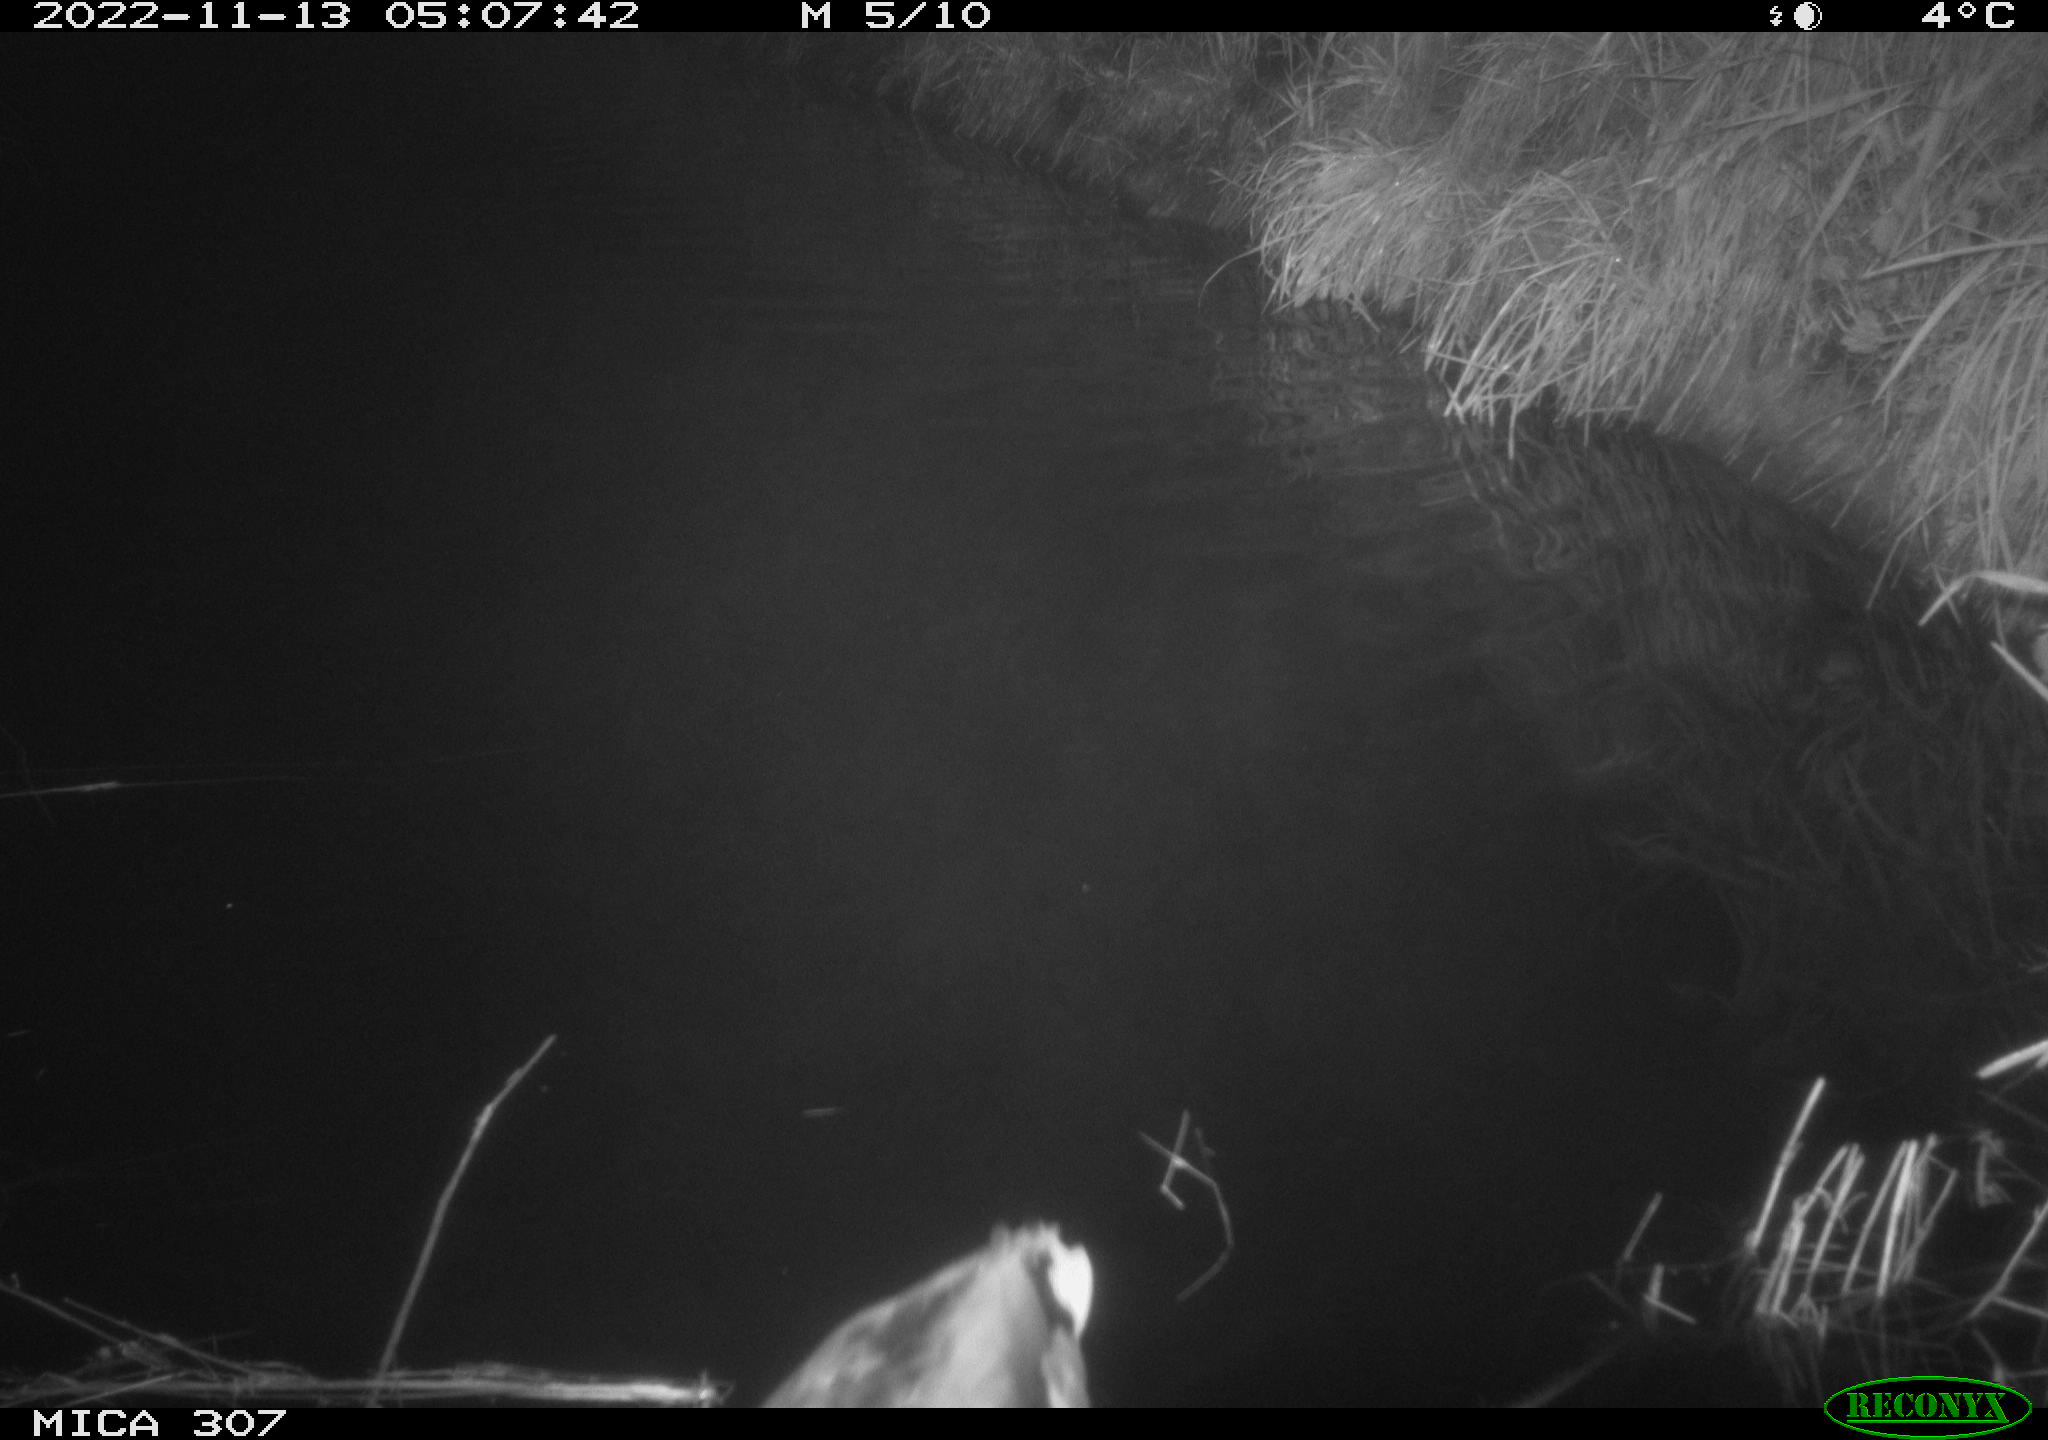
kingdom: Animalia
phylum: Chordata
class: Aves
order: Anseriformes
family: Anatidae
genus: Anas
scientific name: Anas
